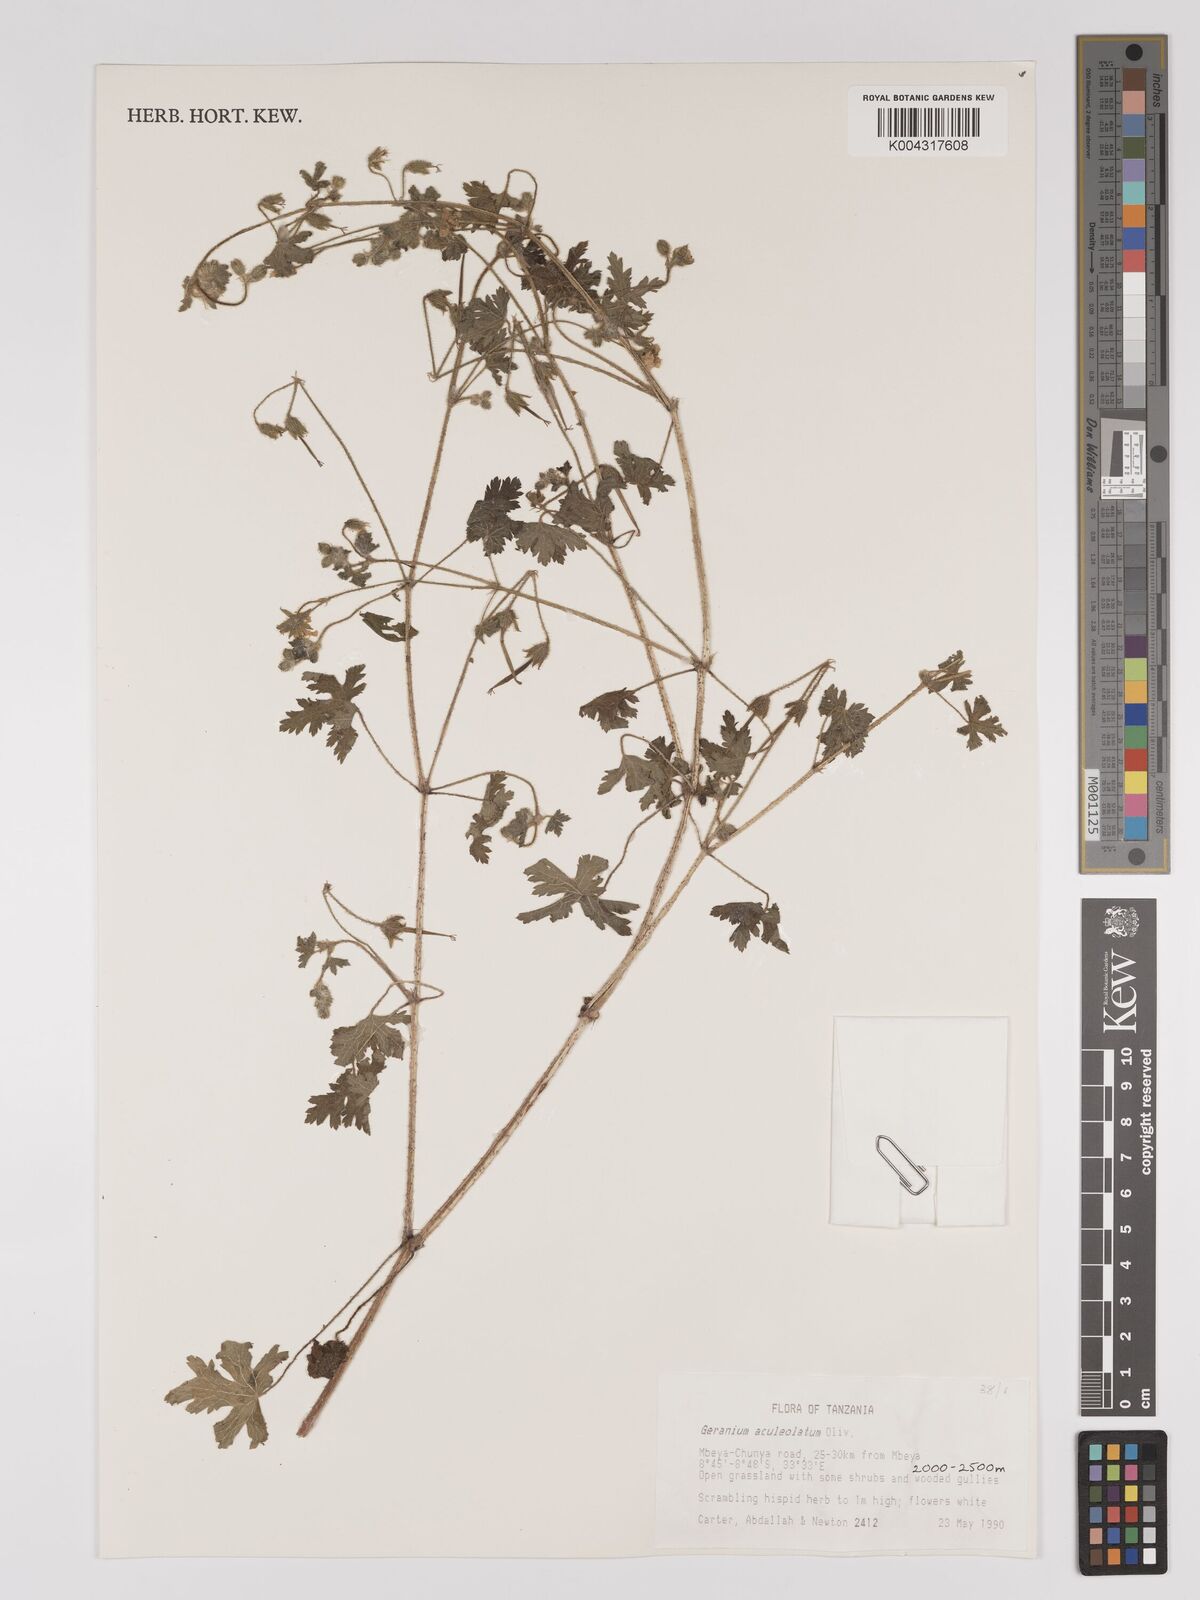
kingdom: Plantae
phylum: Tracheophyta
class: Magnoliopsida
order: Geraniales
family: Geraniaceae
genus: Geranium
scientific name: Geranium aculeolatum
